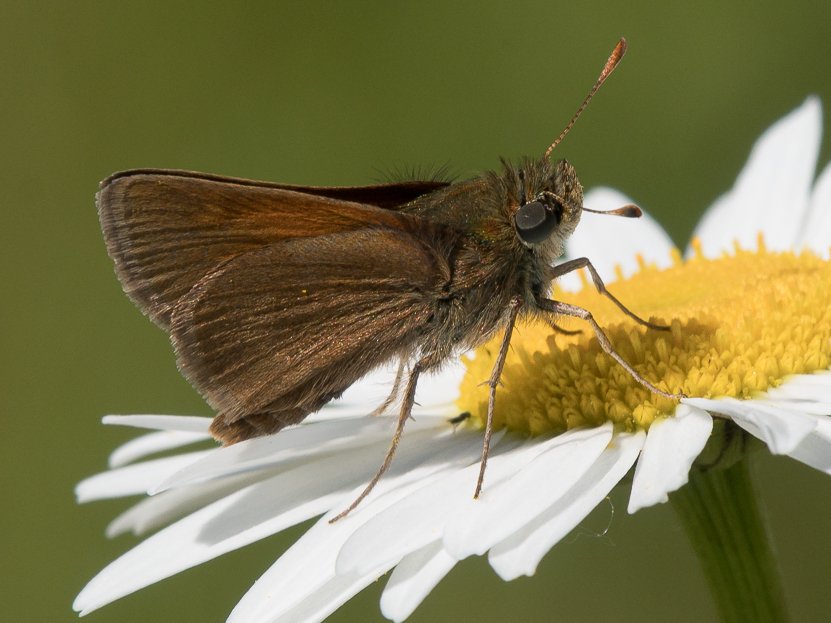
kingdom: Animalia
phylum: Arthropoda
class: Insecta
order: Lepidoptera
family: Hesperiidae
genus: Polites
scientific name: Polites themistocles
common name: Tawny-edged Skipper
